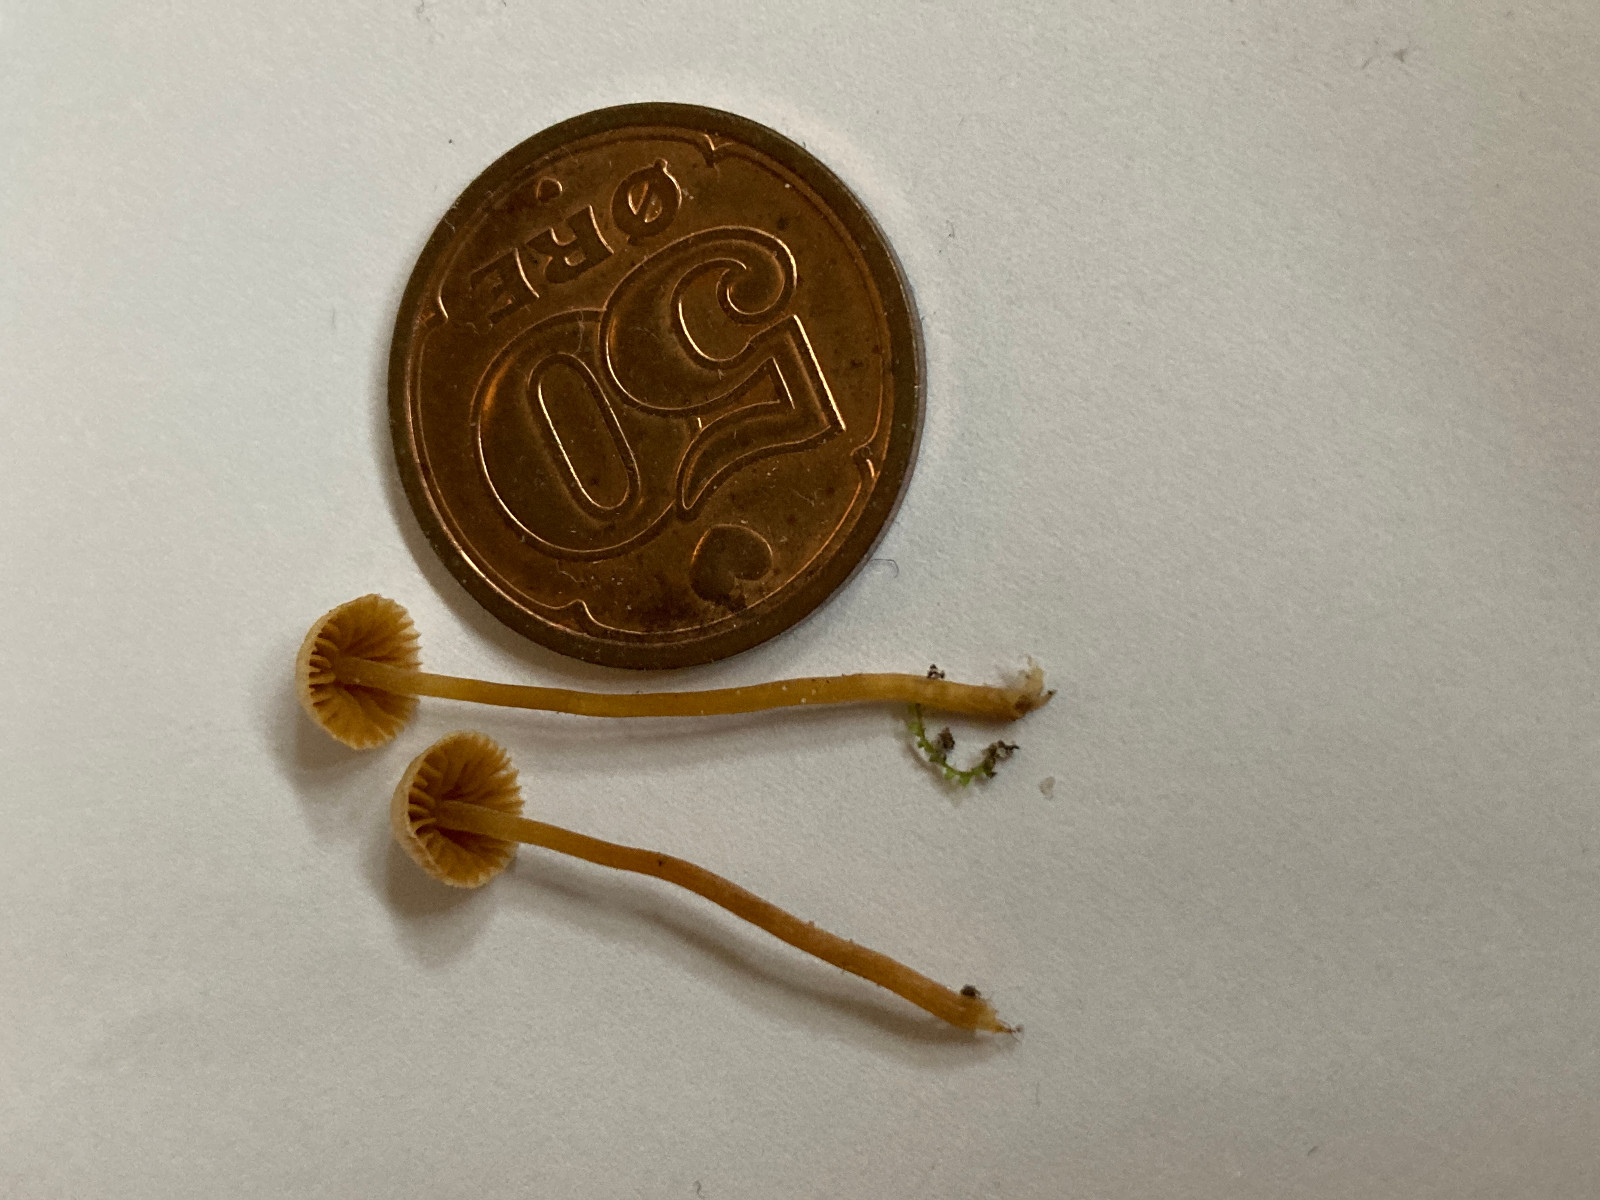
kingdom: Fungi
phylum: Basidiomycota
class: Agaricomycetes
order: Agaricales
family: Hymenogastraceae
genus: Galerina
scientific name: Galerina
